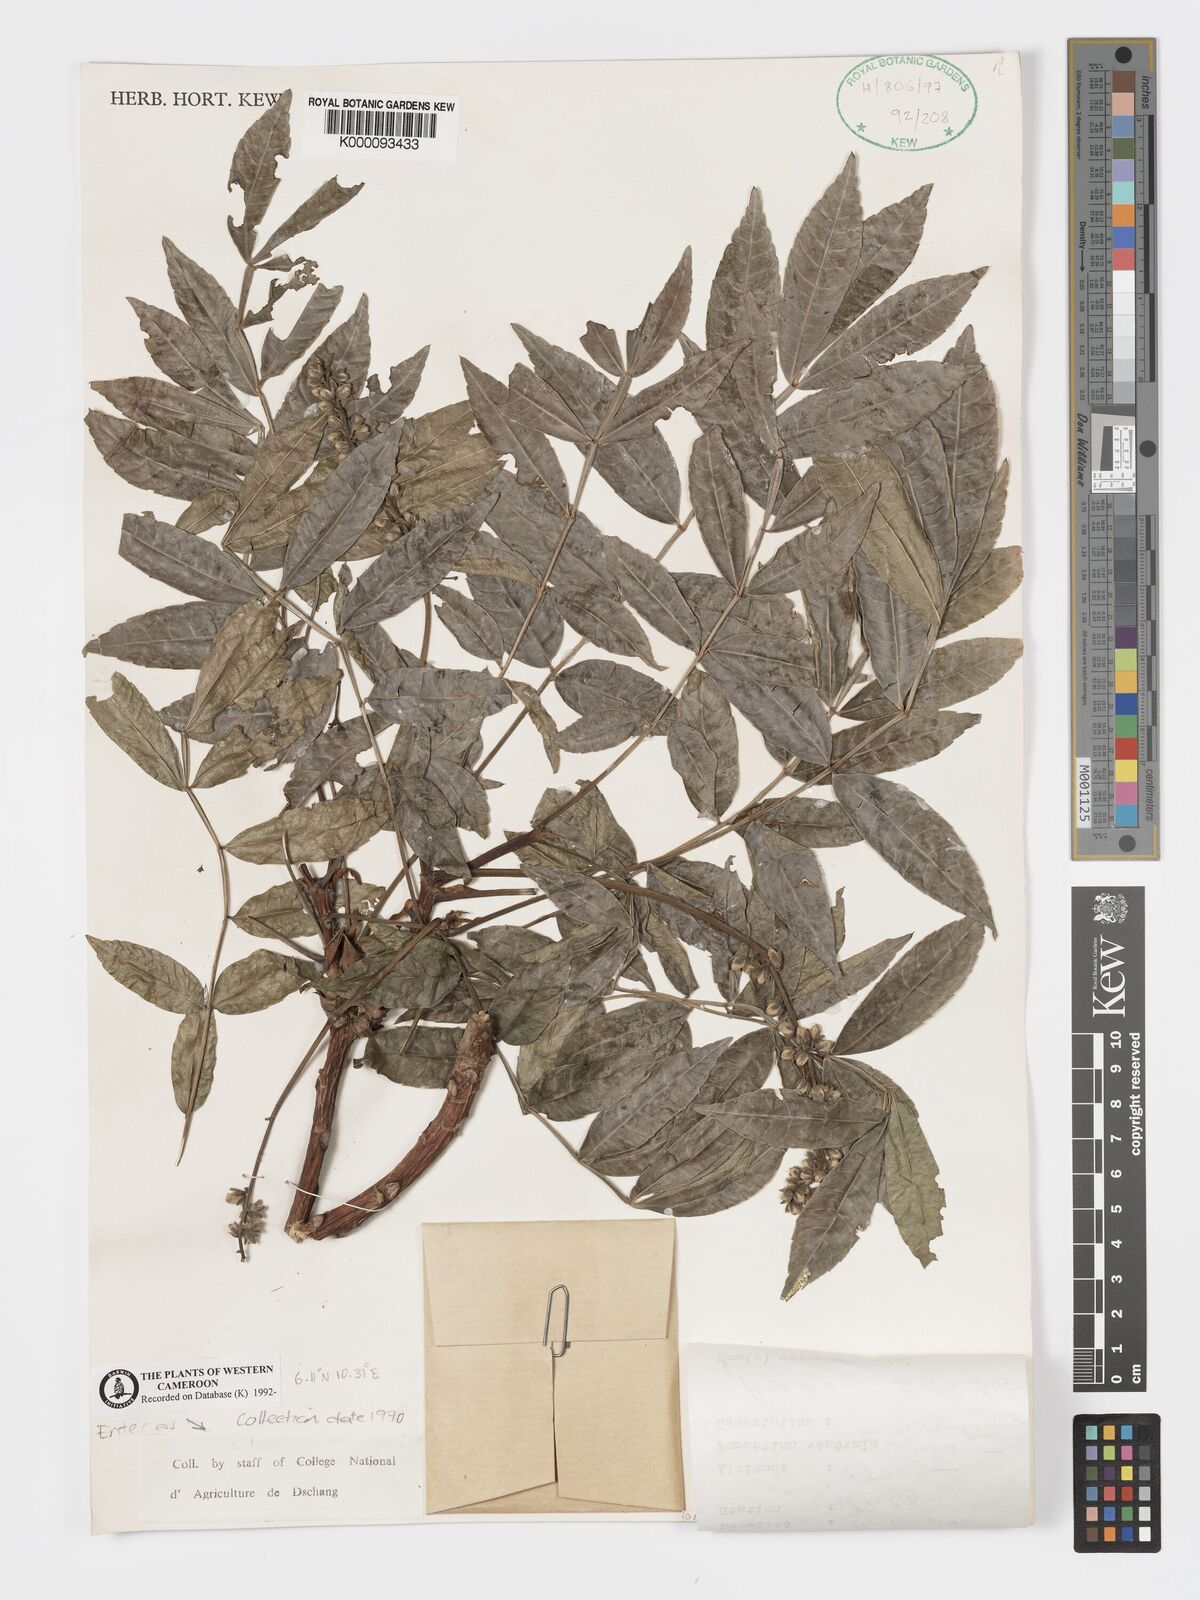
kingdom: Plantae
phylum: Tracheophyta
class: Magnoliopsida
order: Geraniales
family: Melianthaceae
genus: Bersama
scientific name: Bersama
